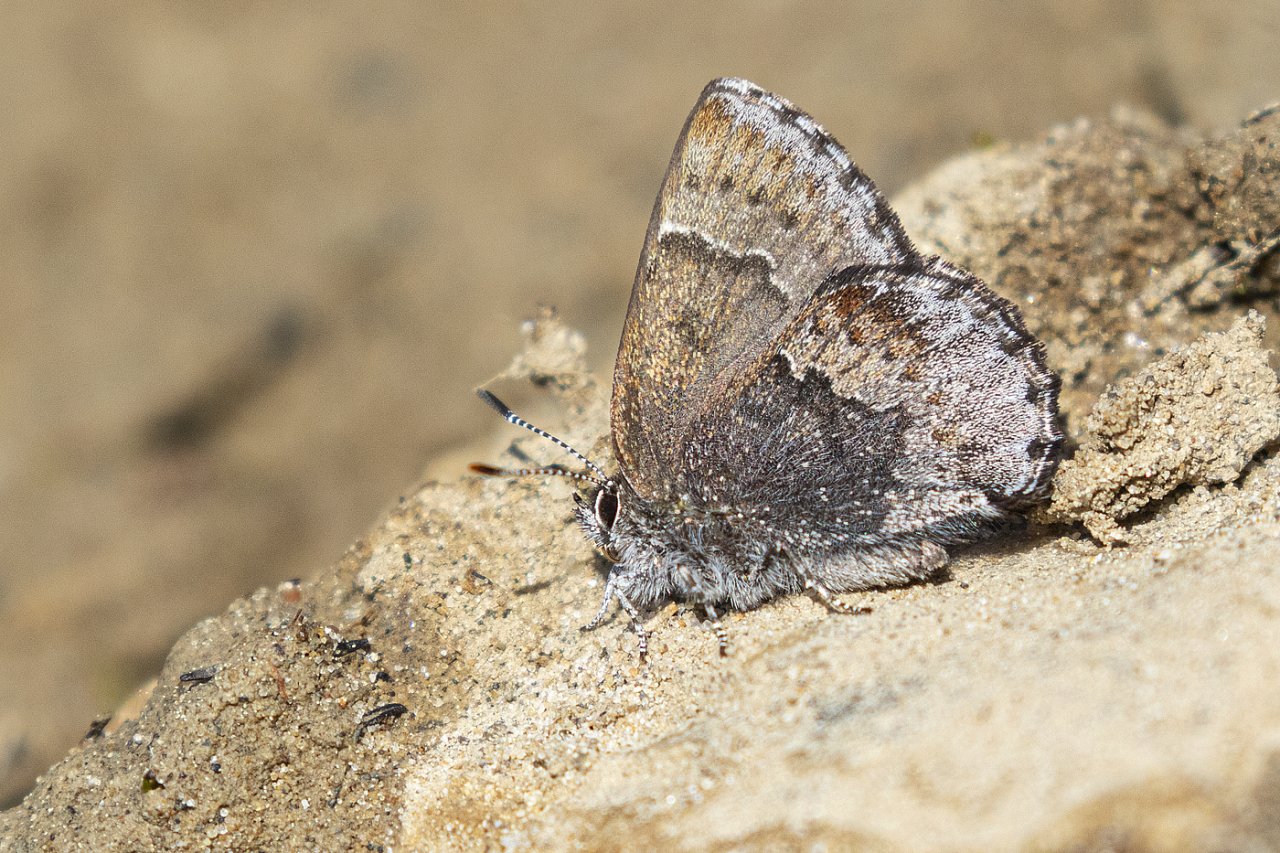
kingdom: Animalia
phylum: Arthropoda
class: Insecta
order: Lepidoptera
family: Lycaenidae
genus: Callophrys
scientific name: Callophrys polios
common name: Hoary Elfin
